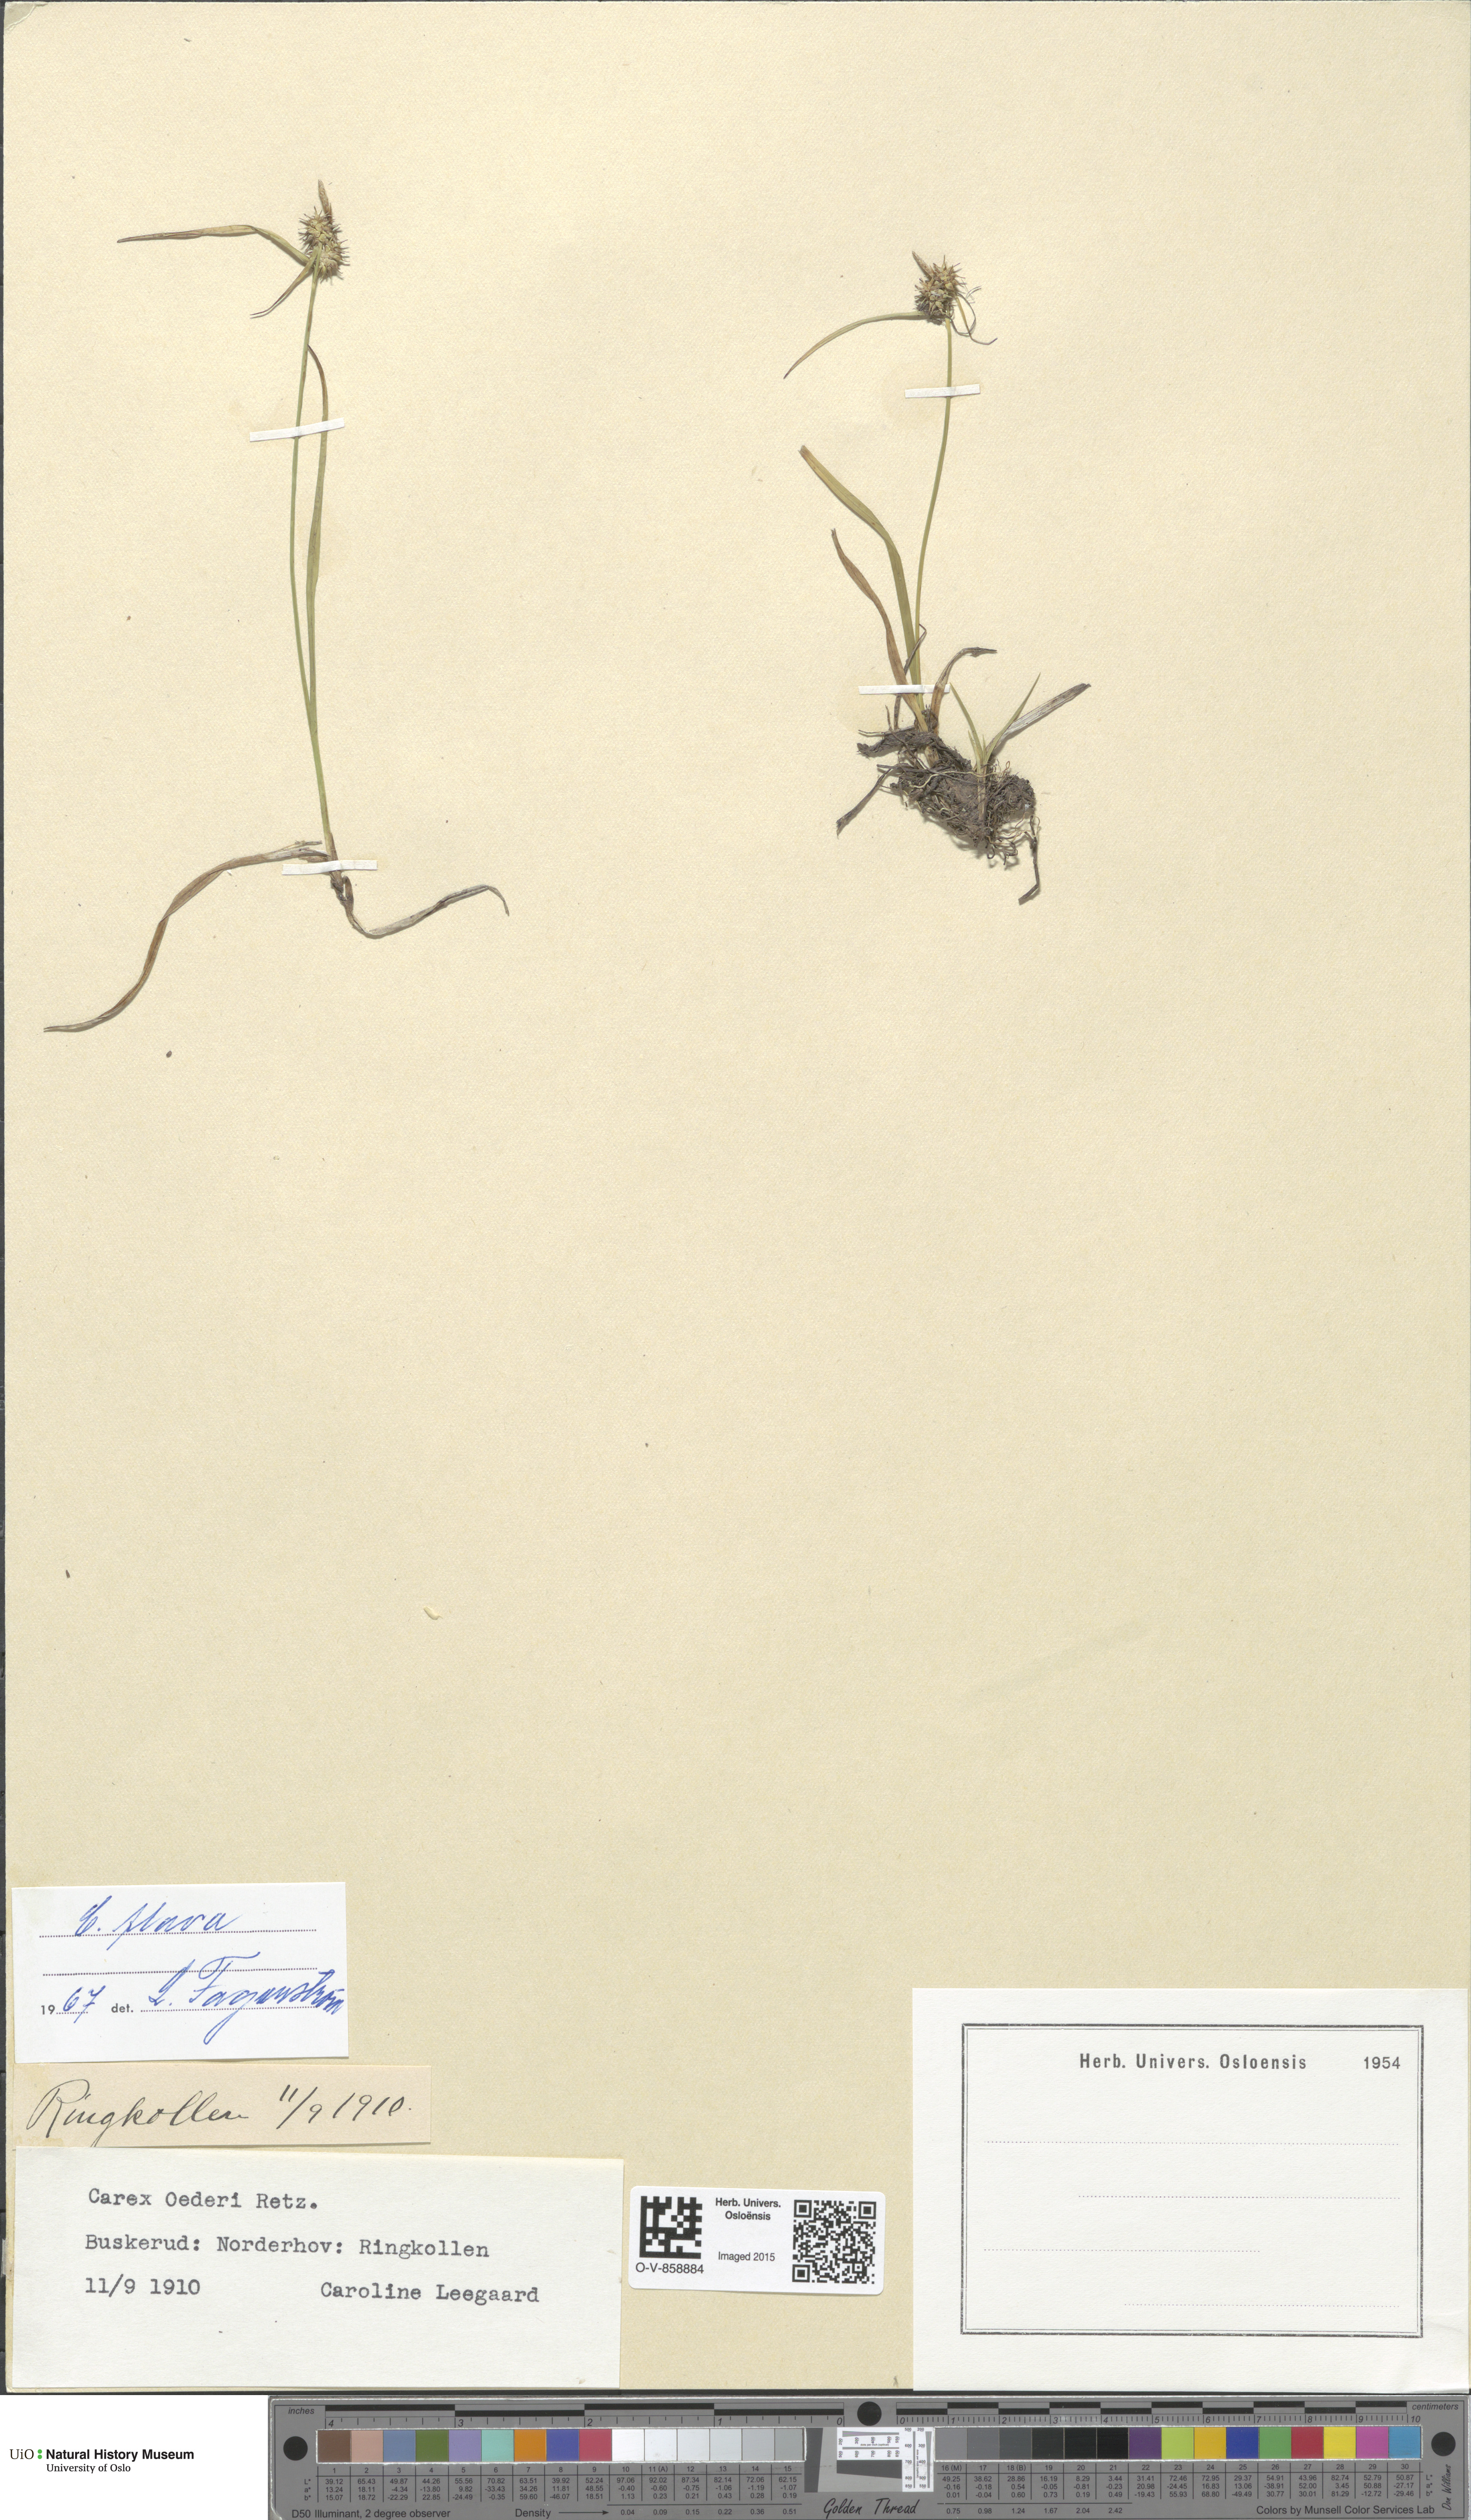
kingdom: Plantae
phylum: Tracheophyta
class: Liliopsida
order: Poales
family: Cyperaceae
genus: Carex
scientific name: Carex flava
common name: Large yellow-sedge
